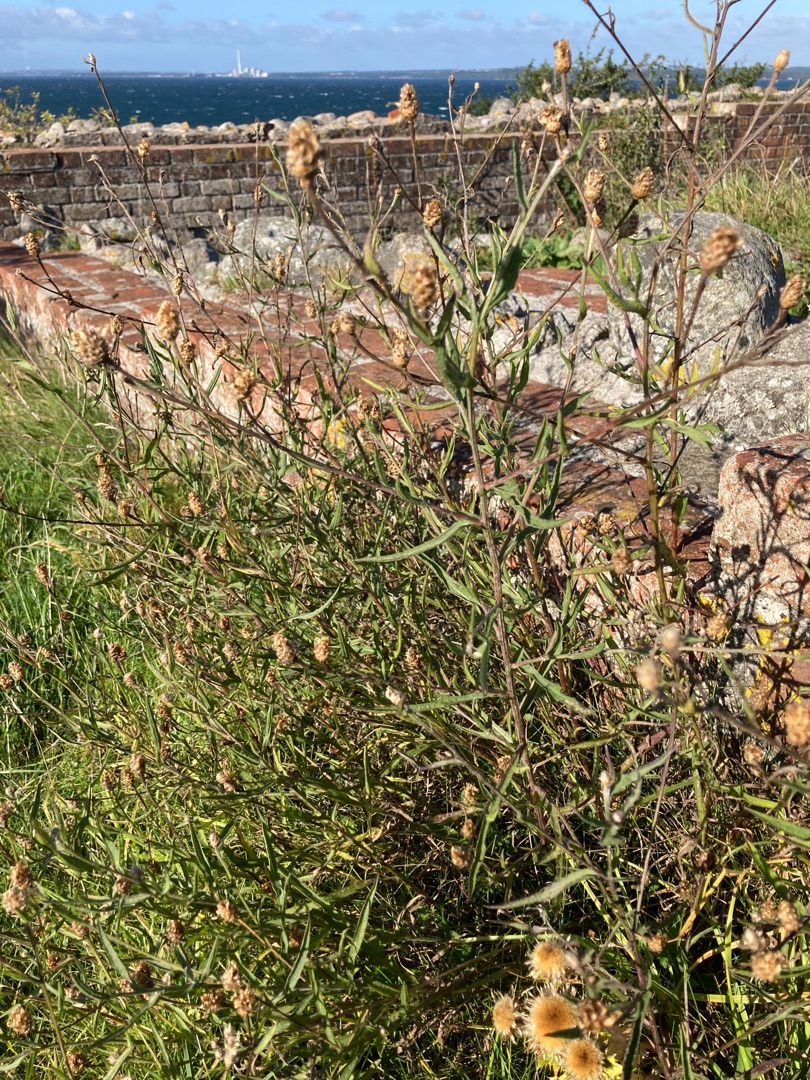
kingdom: Plantae
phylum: Tracheophyta
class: Magnoliopsida
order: Asterales
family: Asteraceae
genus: Centaurea
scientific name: Centaurea jacea
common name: Almindelig knopurt
